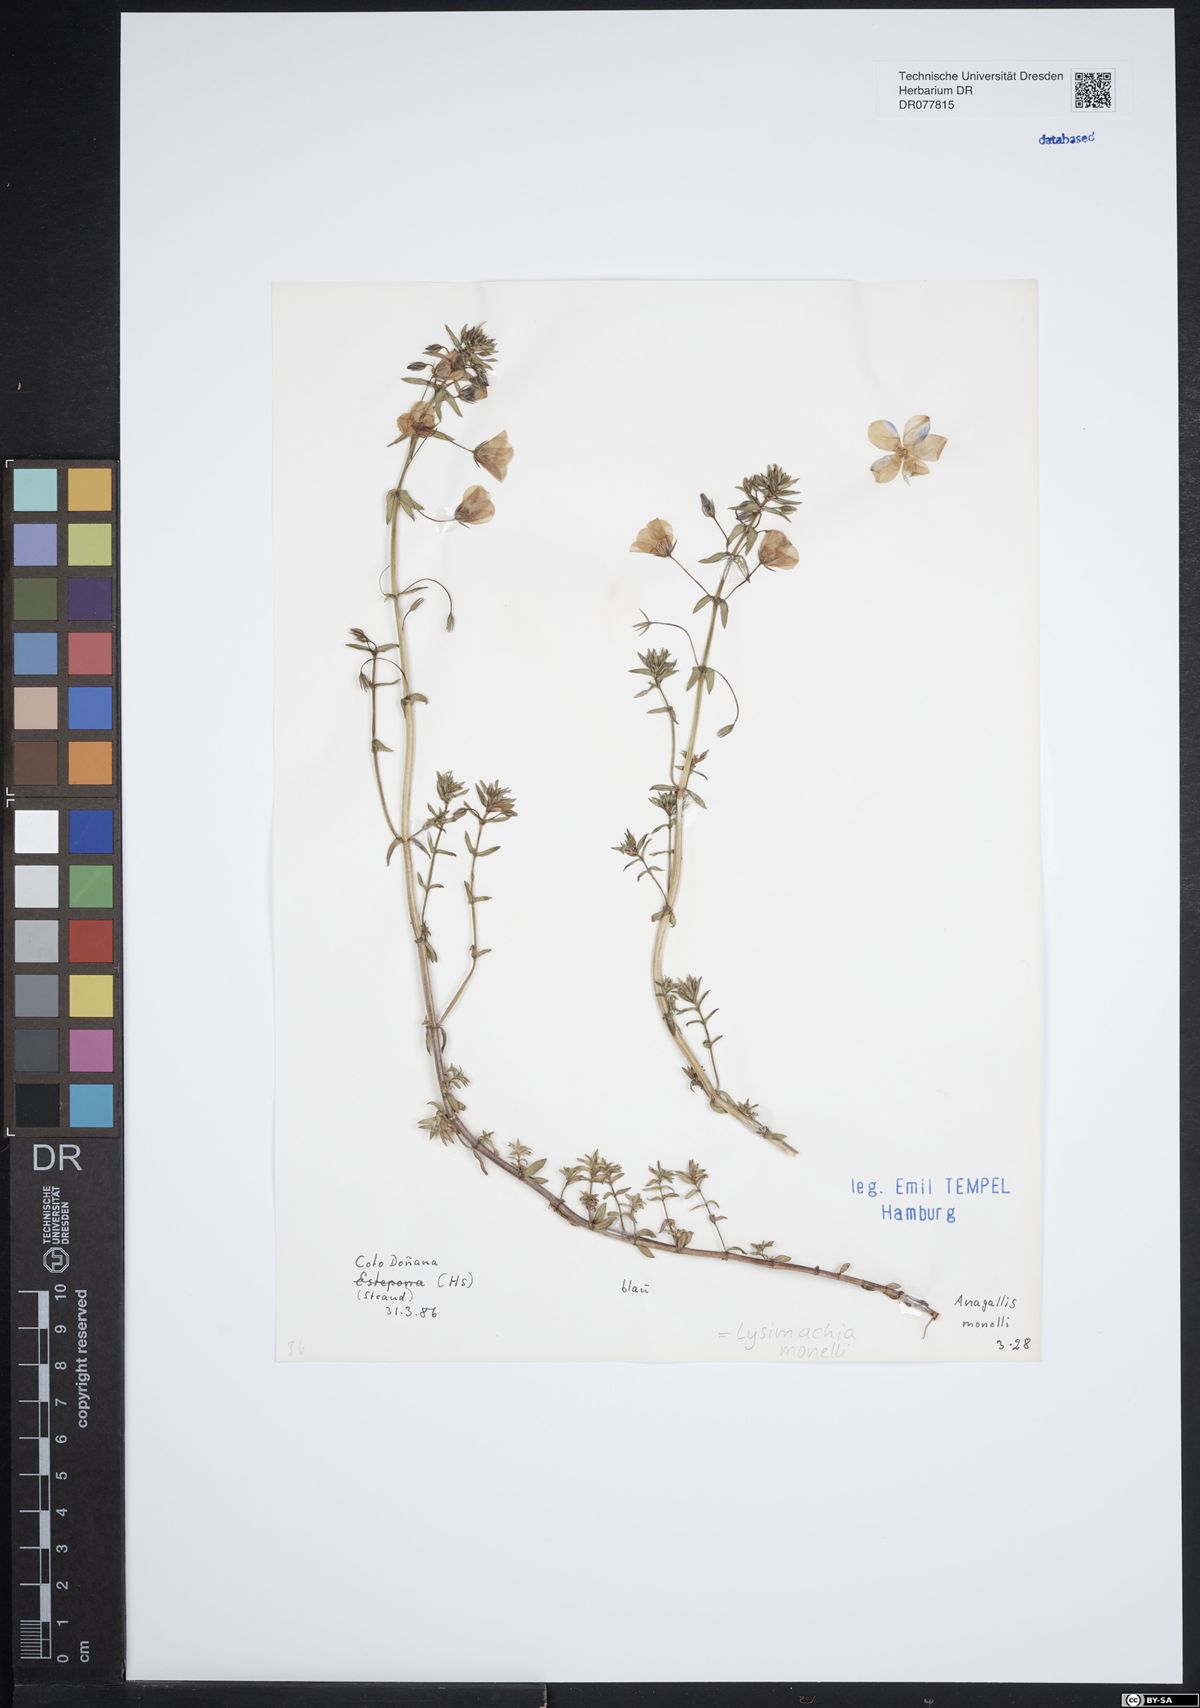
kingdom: Plantae
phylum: Tracheophyta
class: Magnoliopsida
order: Ericales
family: Primulaceae
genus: Lysimachia
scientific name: Lysimachia monelli
